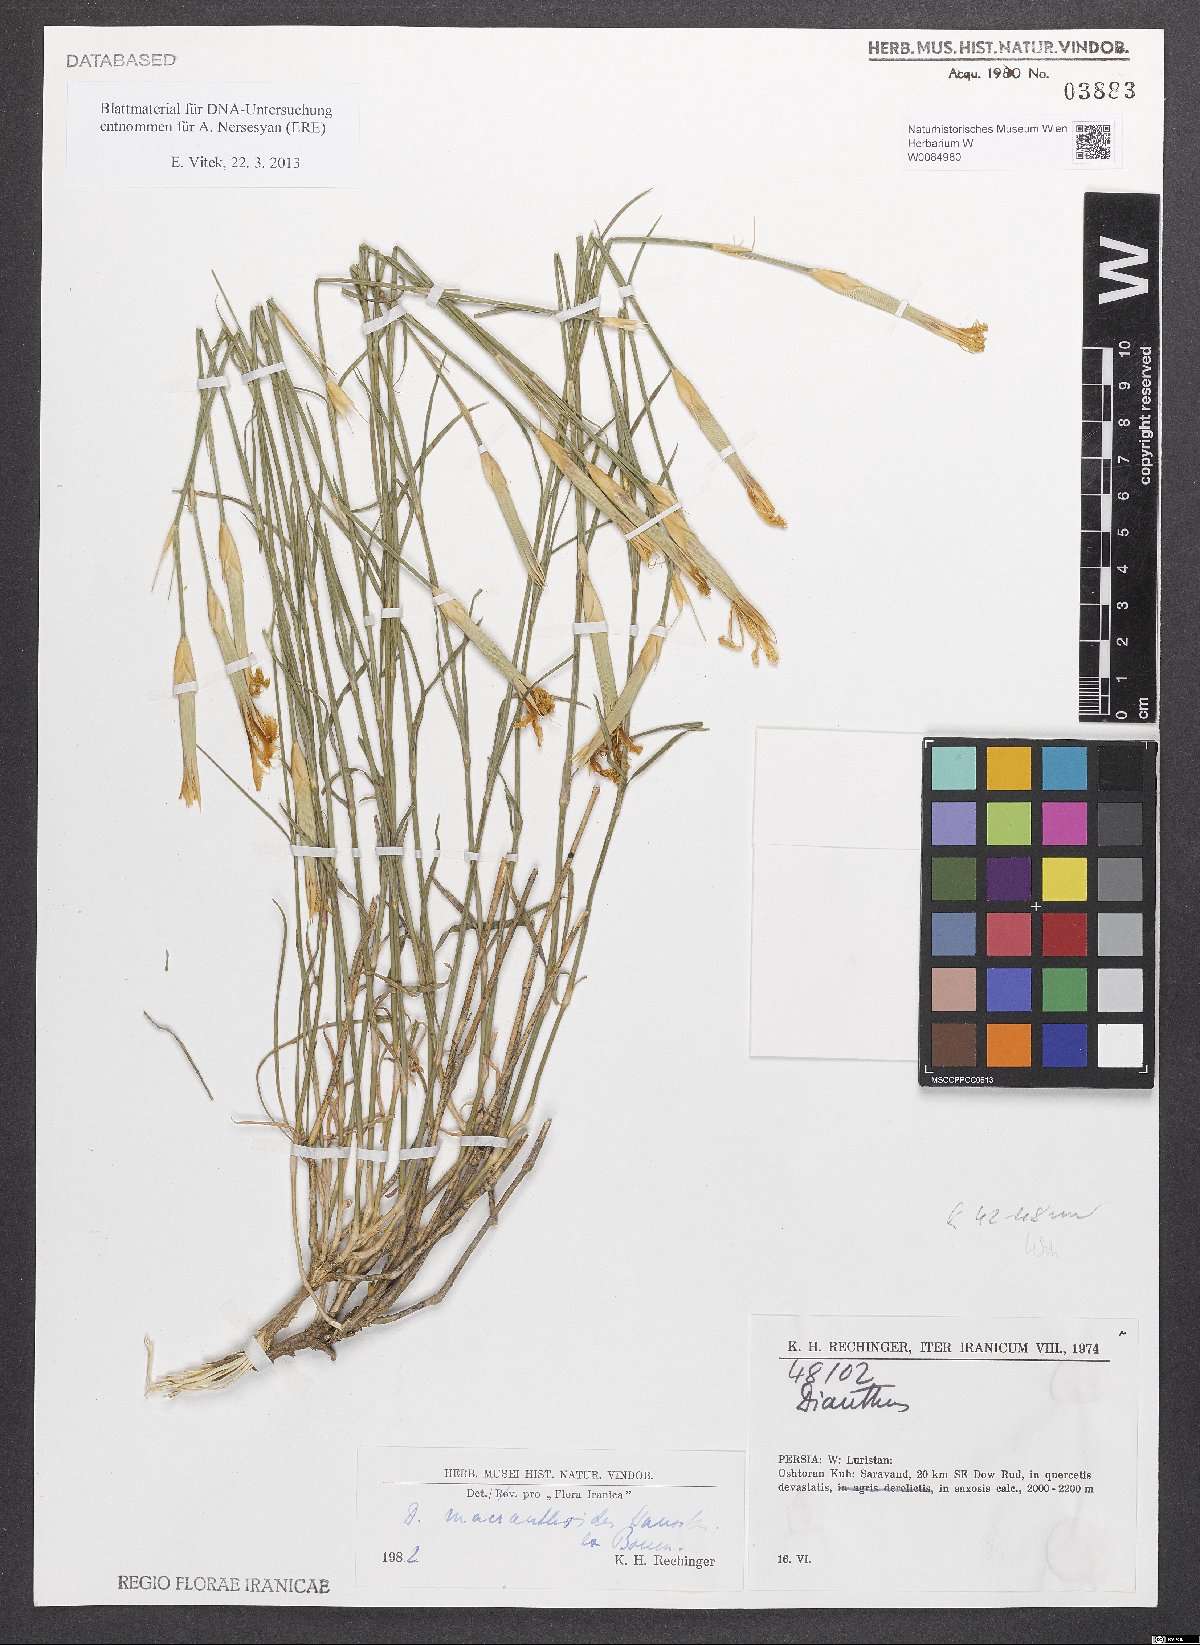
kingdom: Plantae
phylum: Tracheophyta
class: Magnoliopsida
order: Caryophyllales
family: Caryophyllaceae
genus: Dianthus
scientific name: Dianthus macranthoides
